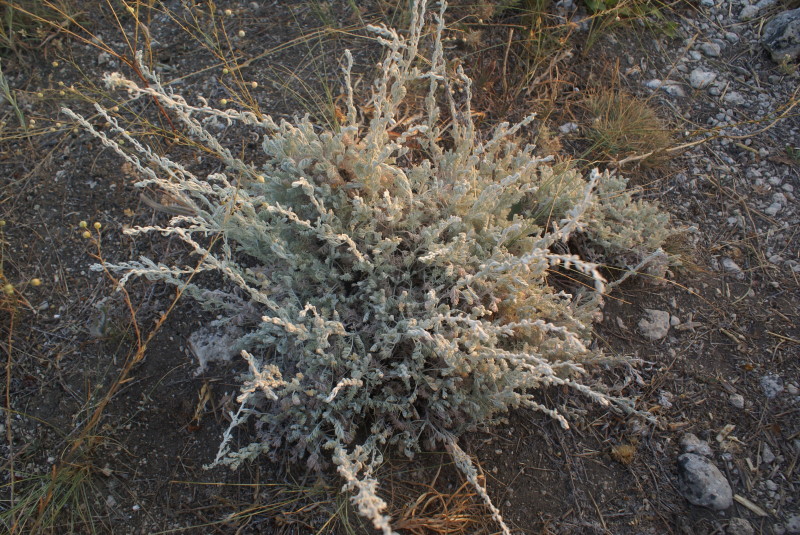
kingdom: Plantae
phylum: Tracheophyta
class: Magnoliopsida
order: Asterales
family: Asteraceae
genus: Artemisia
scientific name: Artemisia
